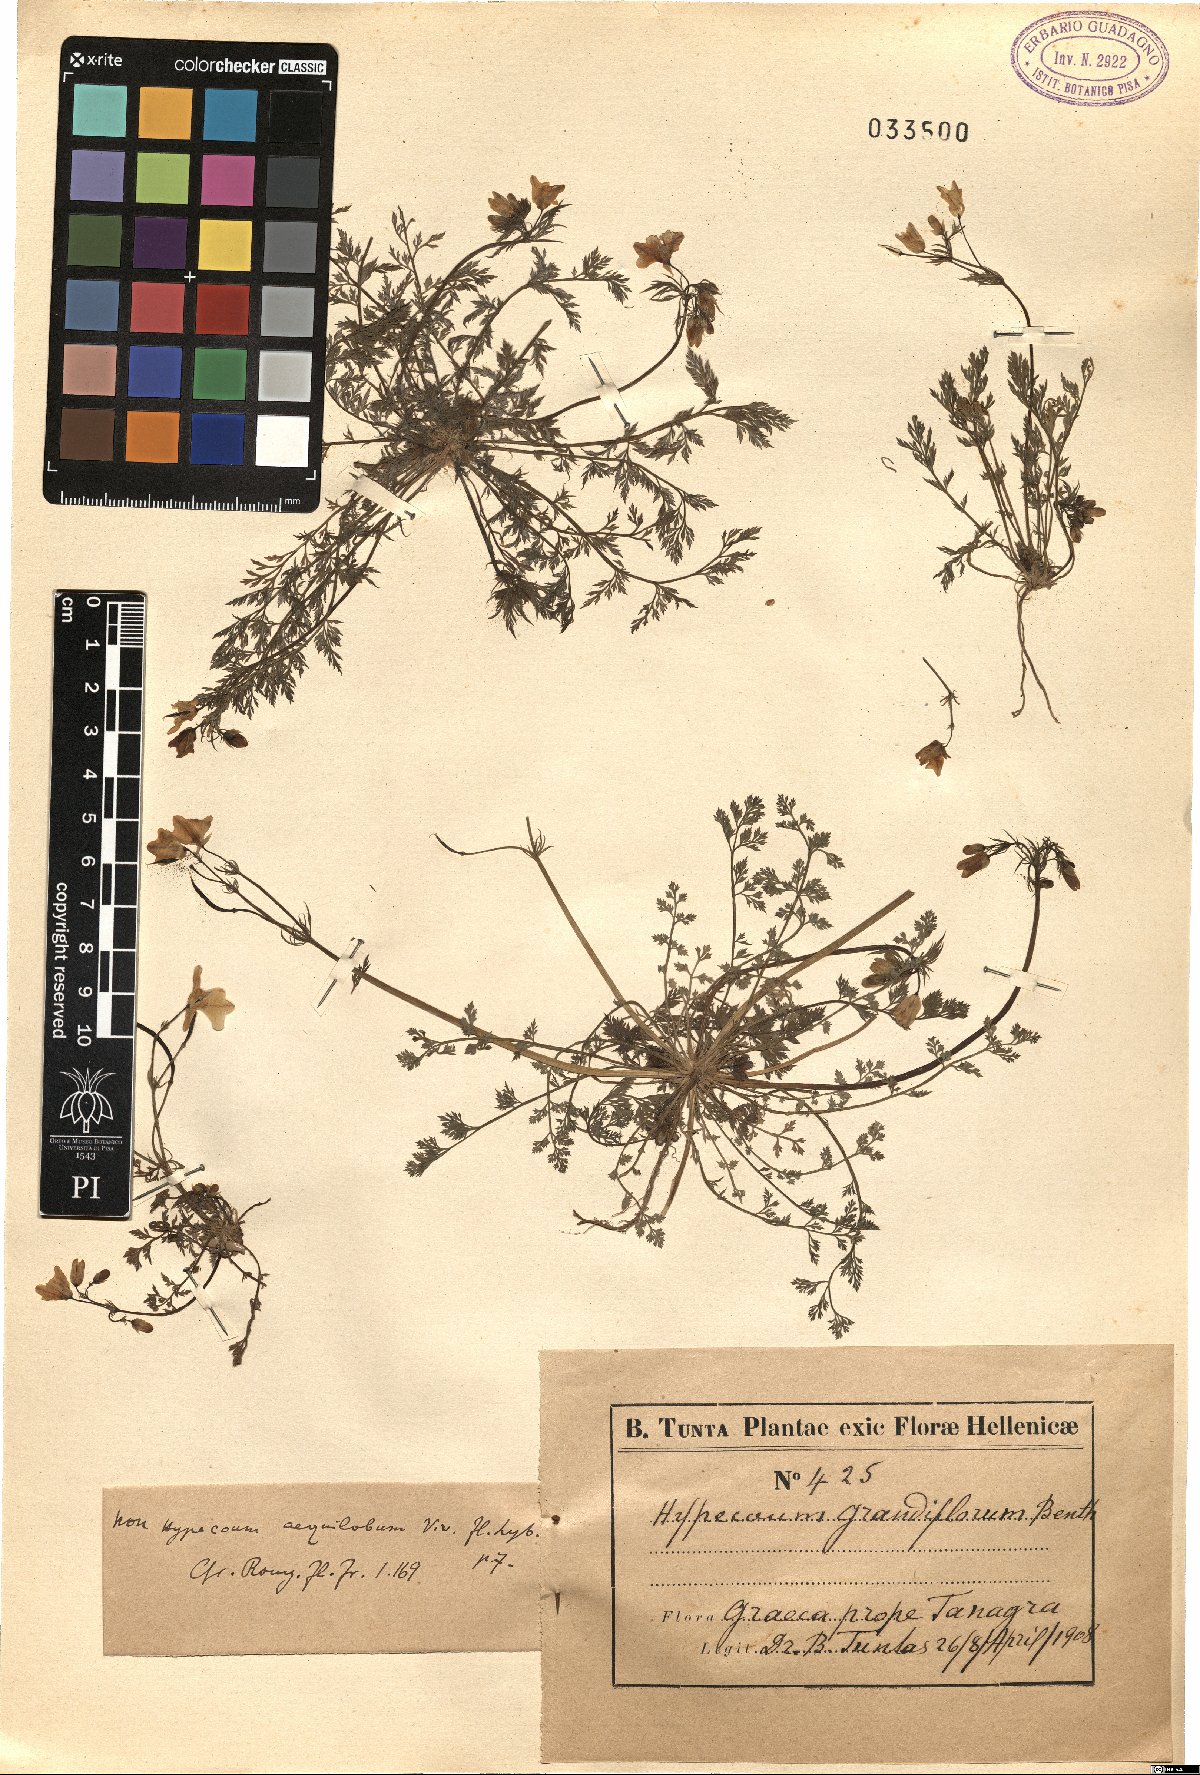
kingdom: Plantae
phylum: Tracheophyta
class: Magnoliopsida
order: Ranunculales
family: Papaveraceae
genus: Hypecoum
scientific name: Hypecoum imberbe
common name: Sicklefruit hypecoum
